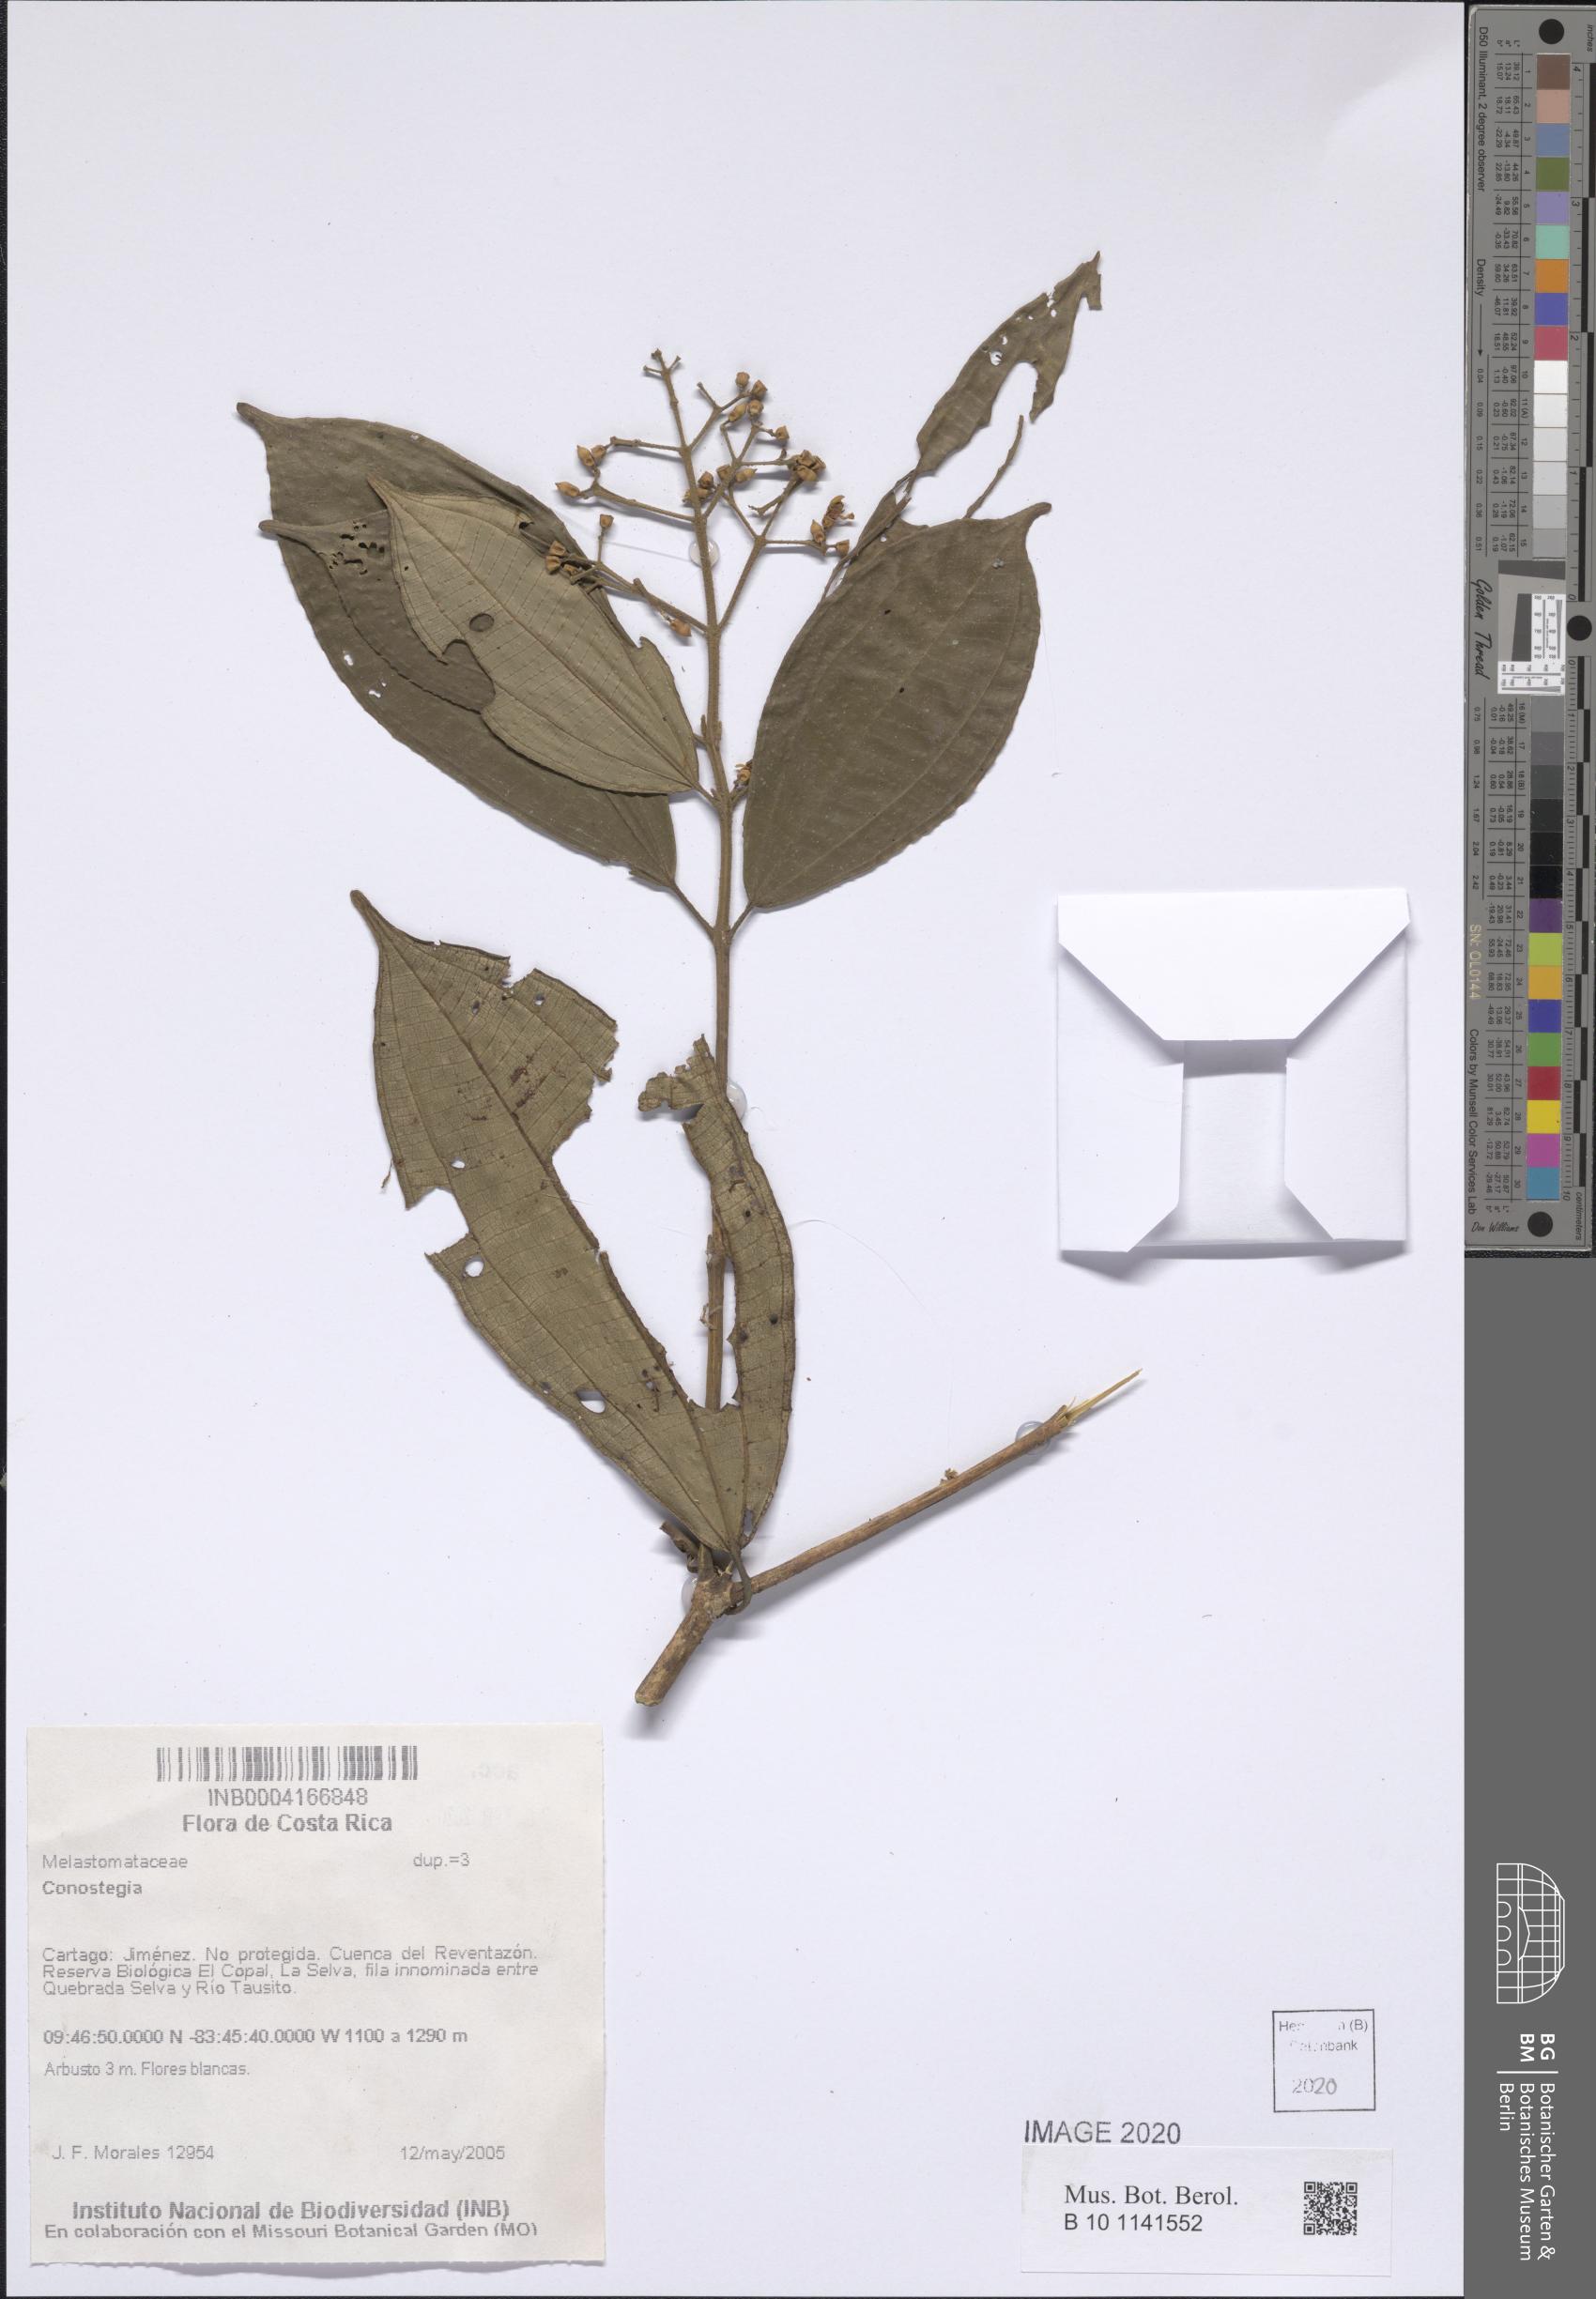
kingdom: Plantae
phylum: Tracheophyta
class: Magnoliopsida
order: Myrtales
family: Melastomataceae
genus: Miconia
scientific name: Miconia
